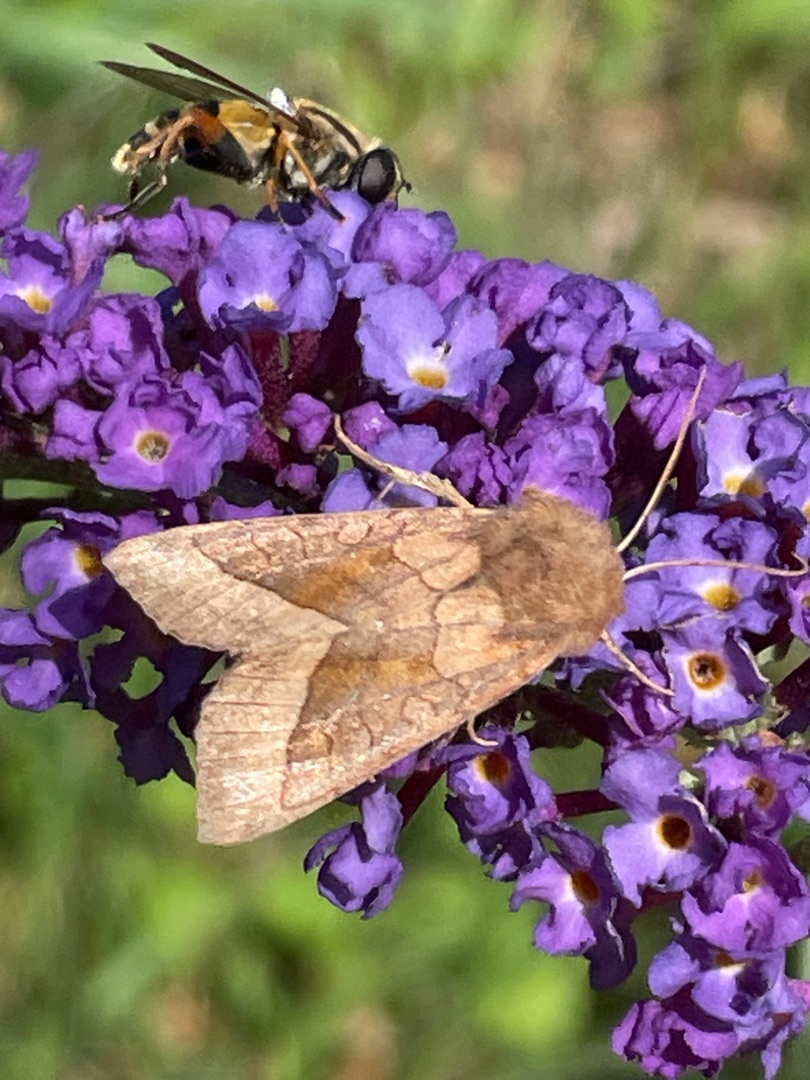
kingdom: Animalia
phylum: Arthropoda
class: Insecta
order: Lepidoptera
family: Noctuidae
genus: Hydraecia
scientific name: Hydraecia micacea
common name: Kartoffelborer
